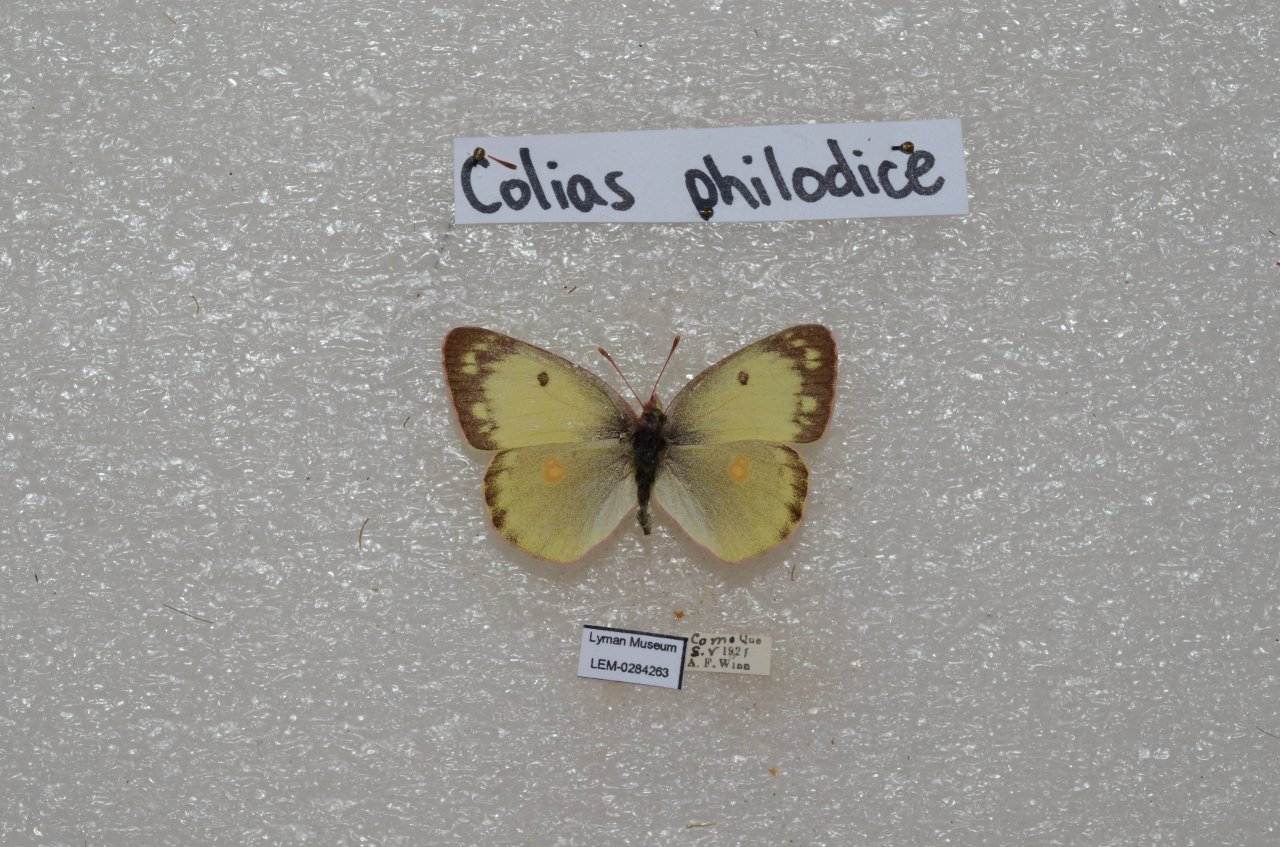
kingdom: Animalia
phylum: Arthropoda
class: Insecta
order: Lepidoptera
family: Pieridae
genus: Colias
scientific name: Colias philodice
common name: Clouded Sulphur
